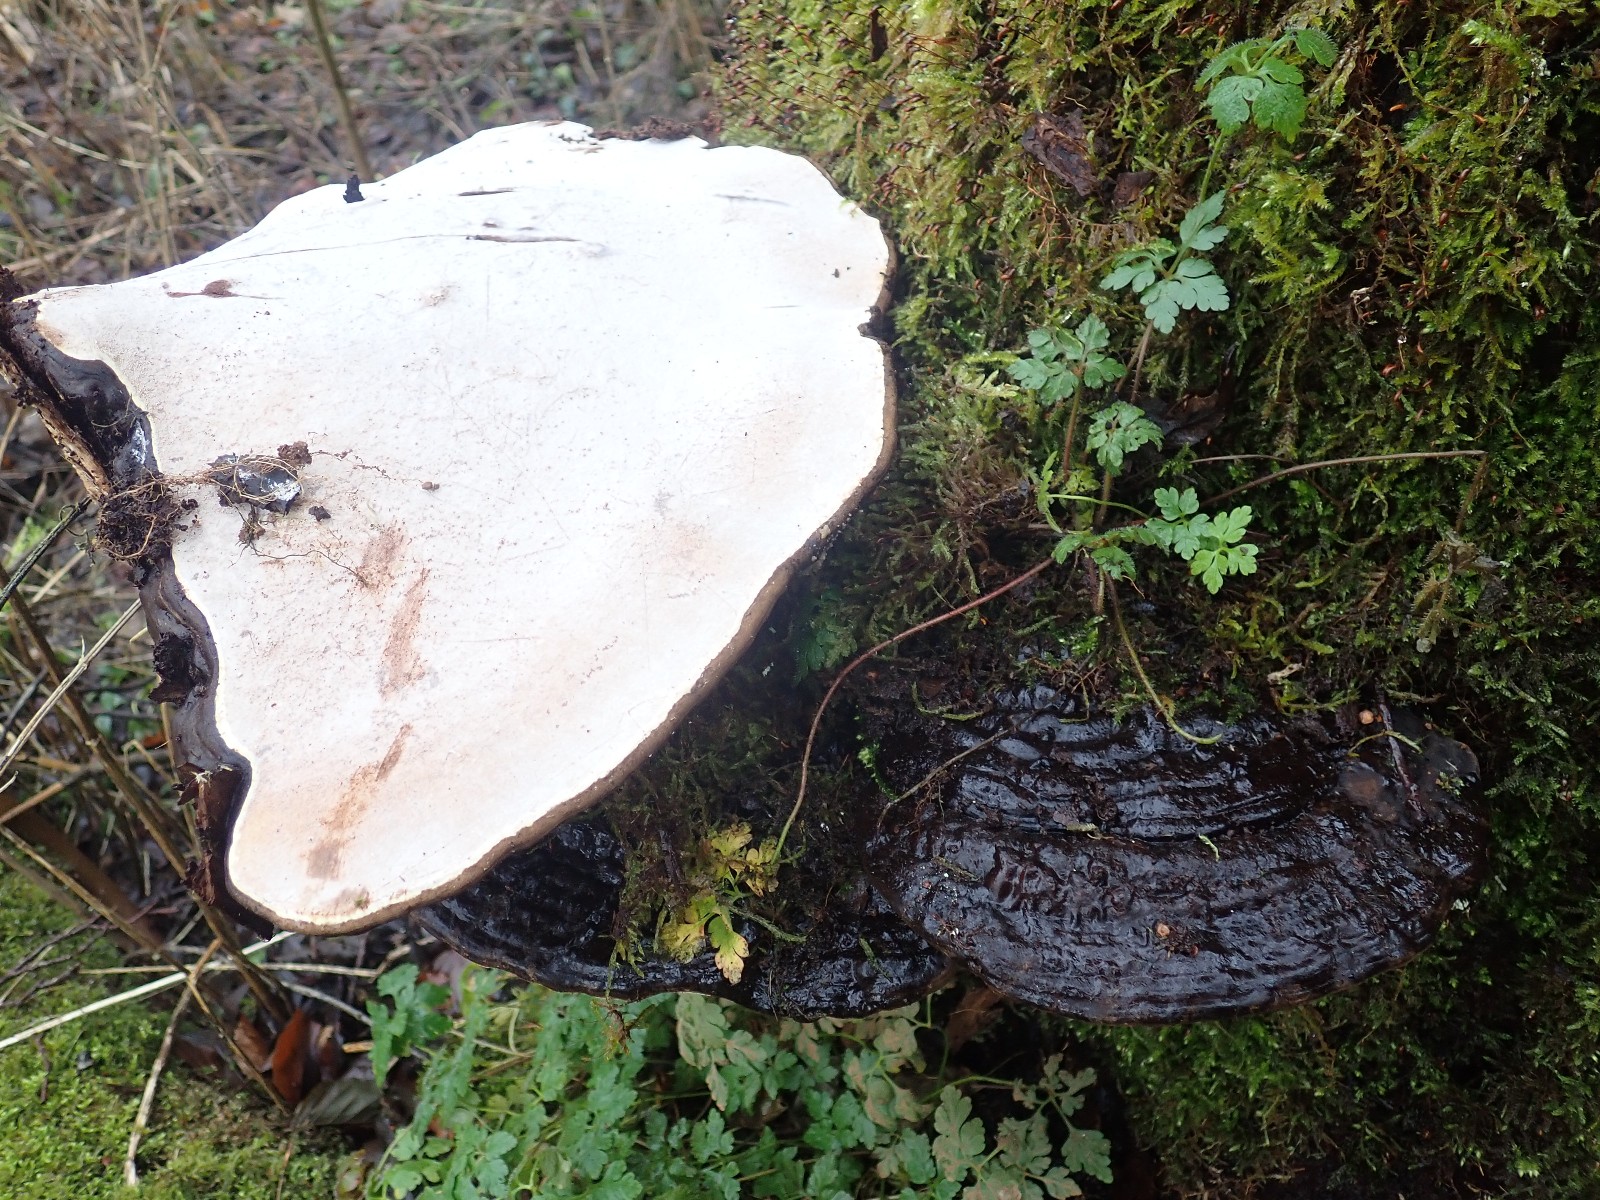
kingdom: Fungi
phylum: Basidiomycota
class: Agaricomycetes
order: Polyporales
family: Polyporaceae
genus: Ganoderma
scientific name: Ganoderma applanatum
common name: flad lakporesvamp
